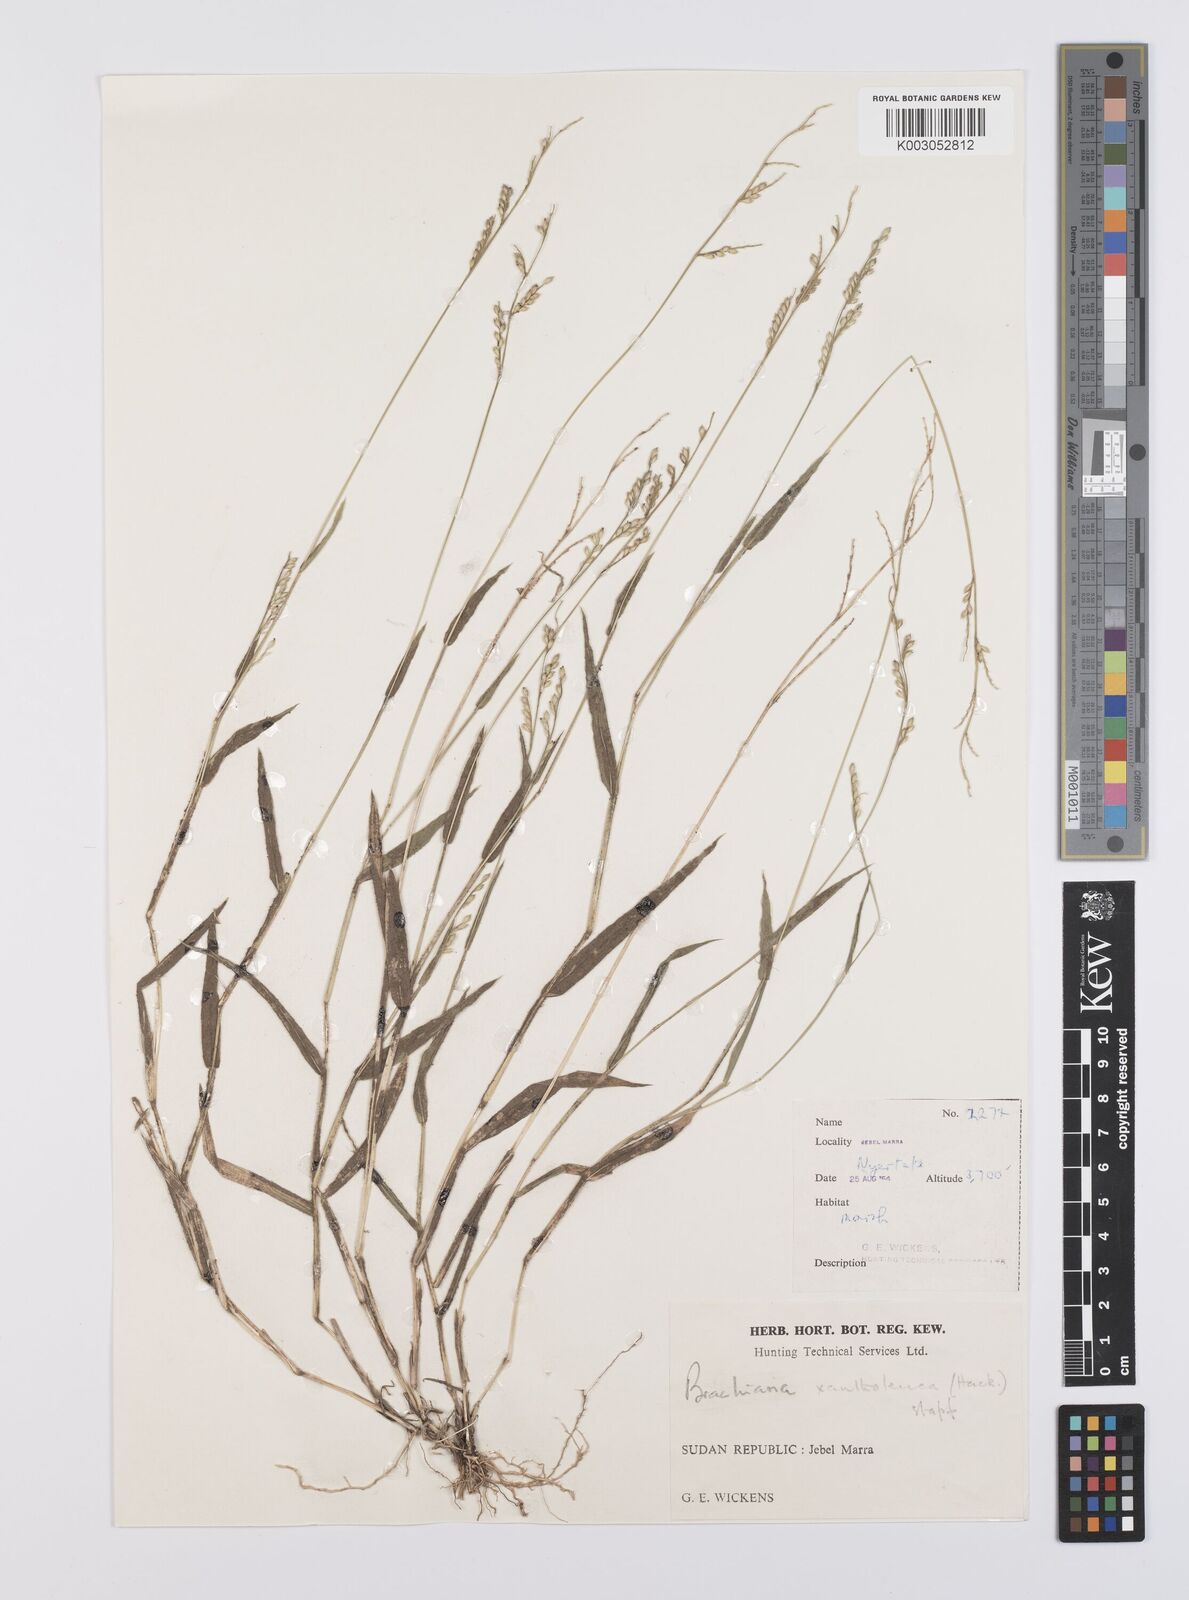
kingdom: Plantae
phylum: Tracheophyta
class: Liliopsida
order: Poales
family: Poaceae
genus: Urochloa
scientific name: Urochloa xantholeuca
